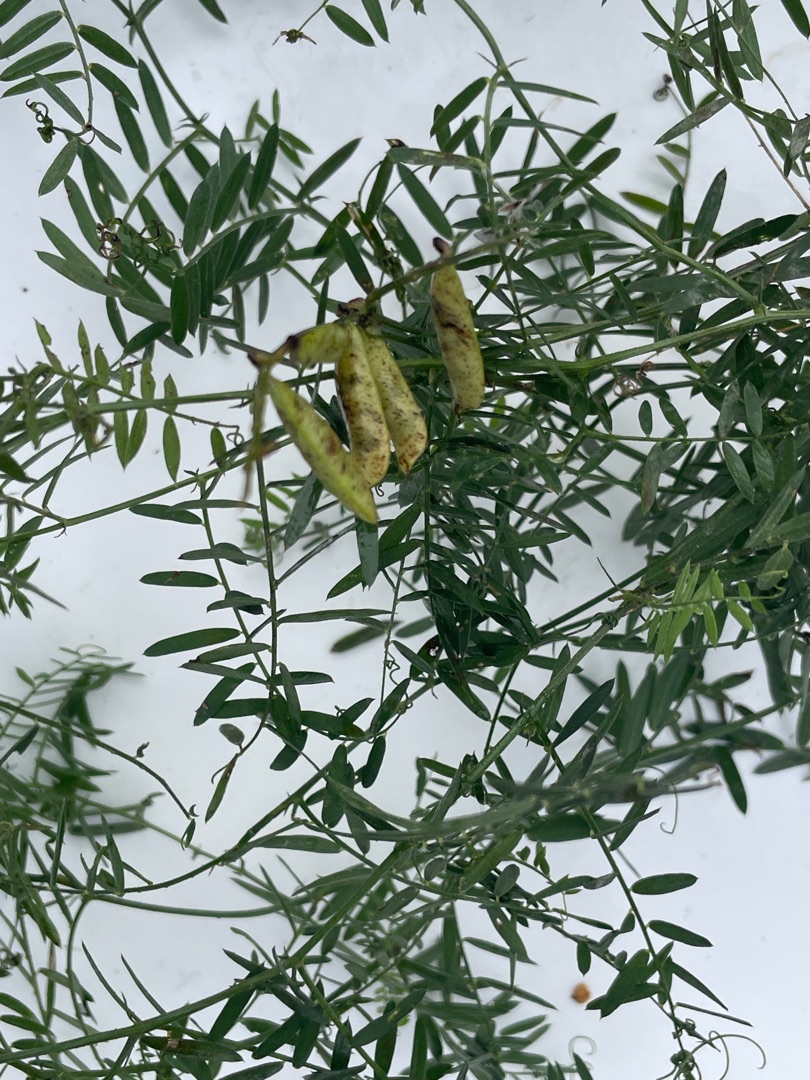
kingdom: Plantae
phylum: Tracheophyta
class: Magnoliopsida
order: Fabales
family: Fabaceae
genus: Vicia
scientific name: Vicia cracca
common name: Muse-vikke
